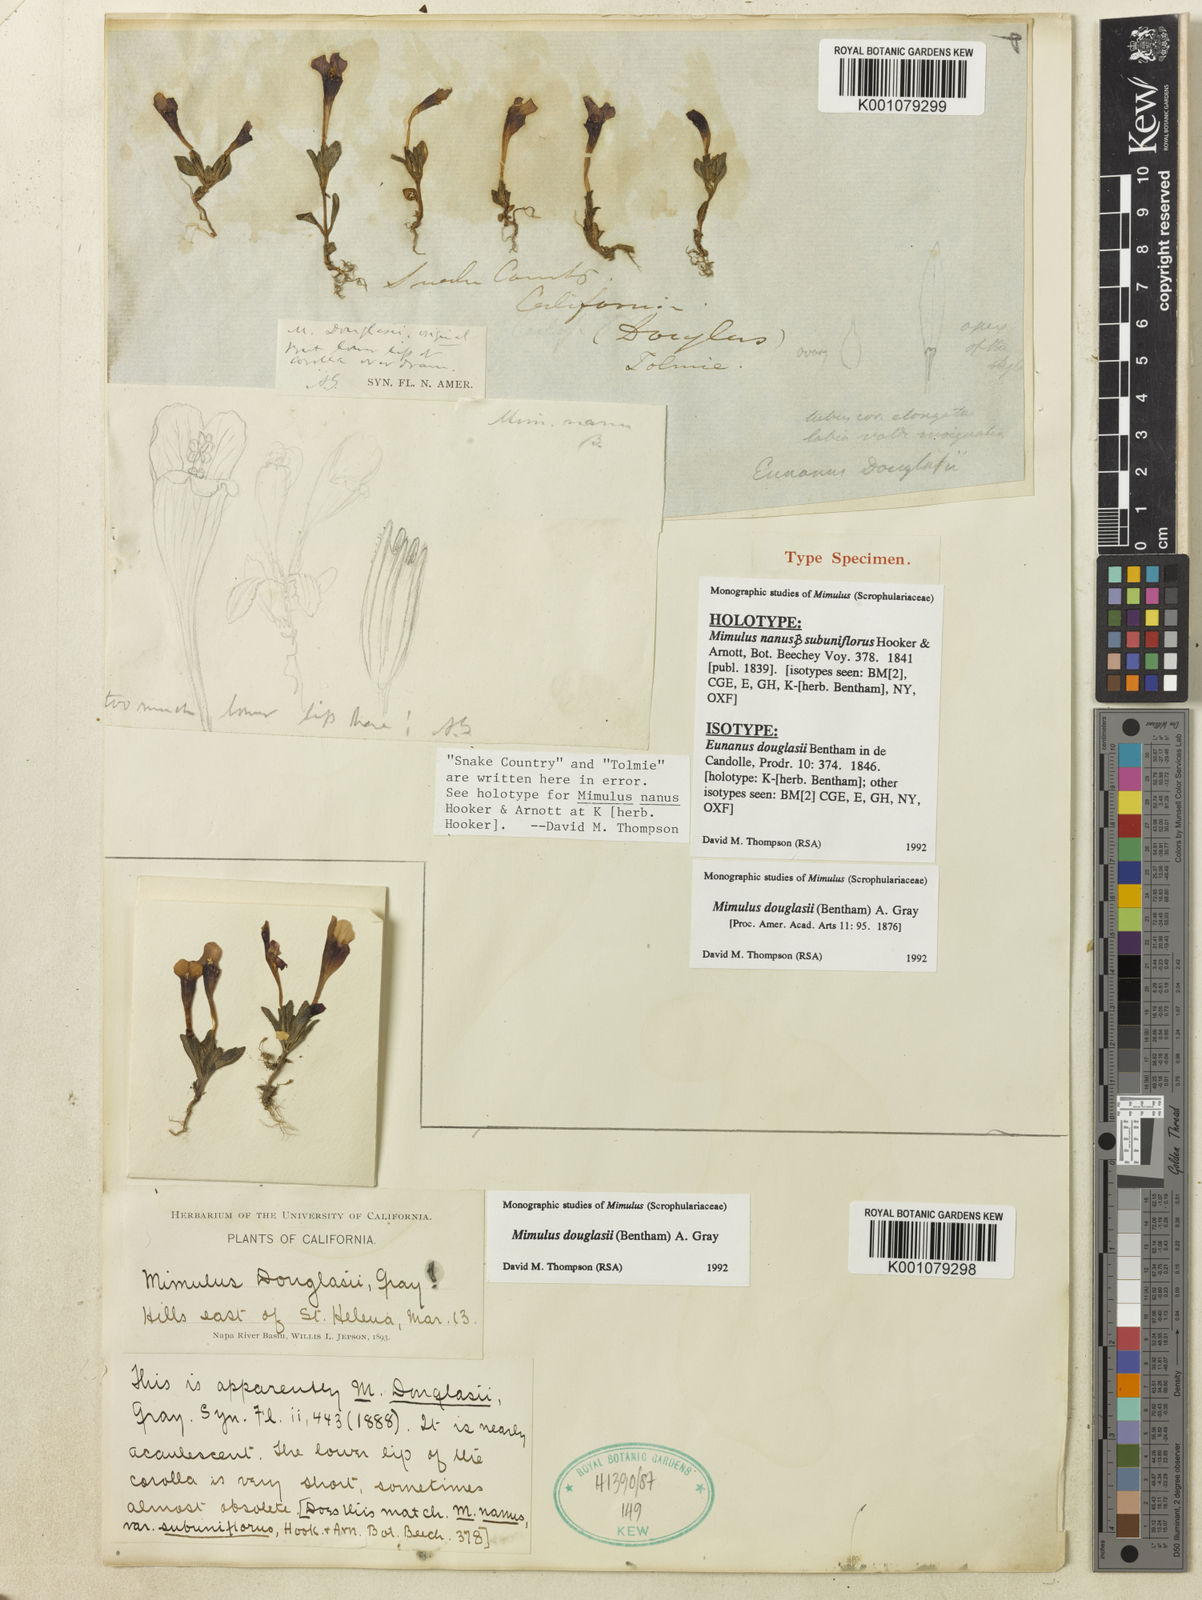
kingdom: Plantae
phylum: Tracheophyta
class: Magnoliopsida
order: Lamiales
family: Phrymaceae
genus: Diplacus
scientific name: Diplacus douglasii
